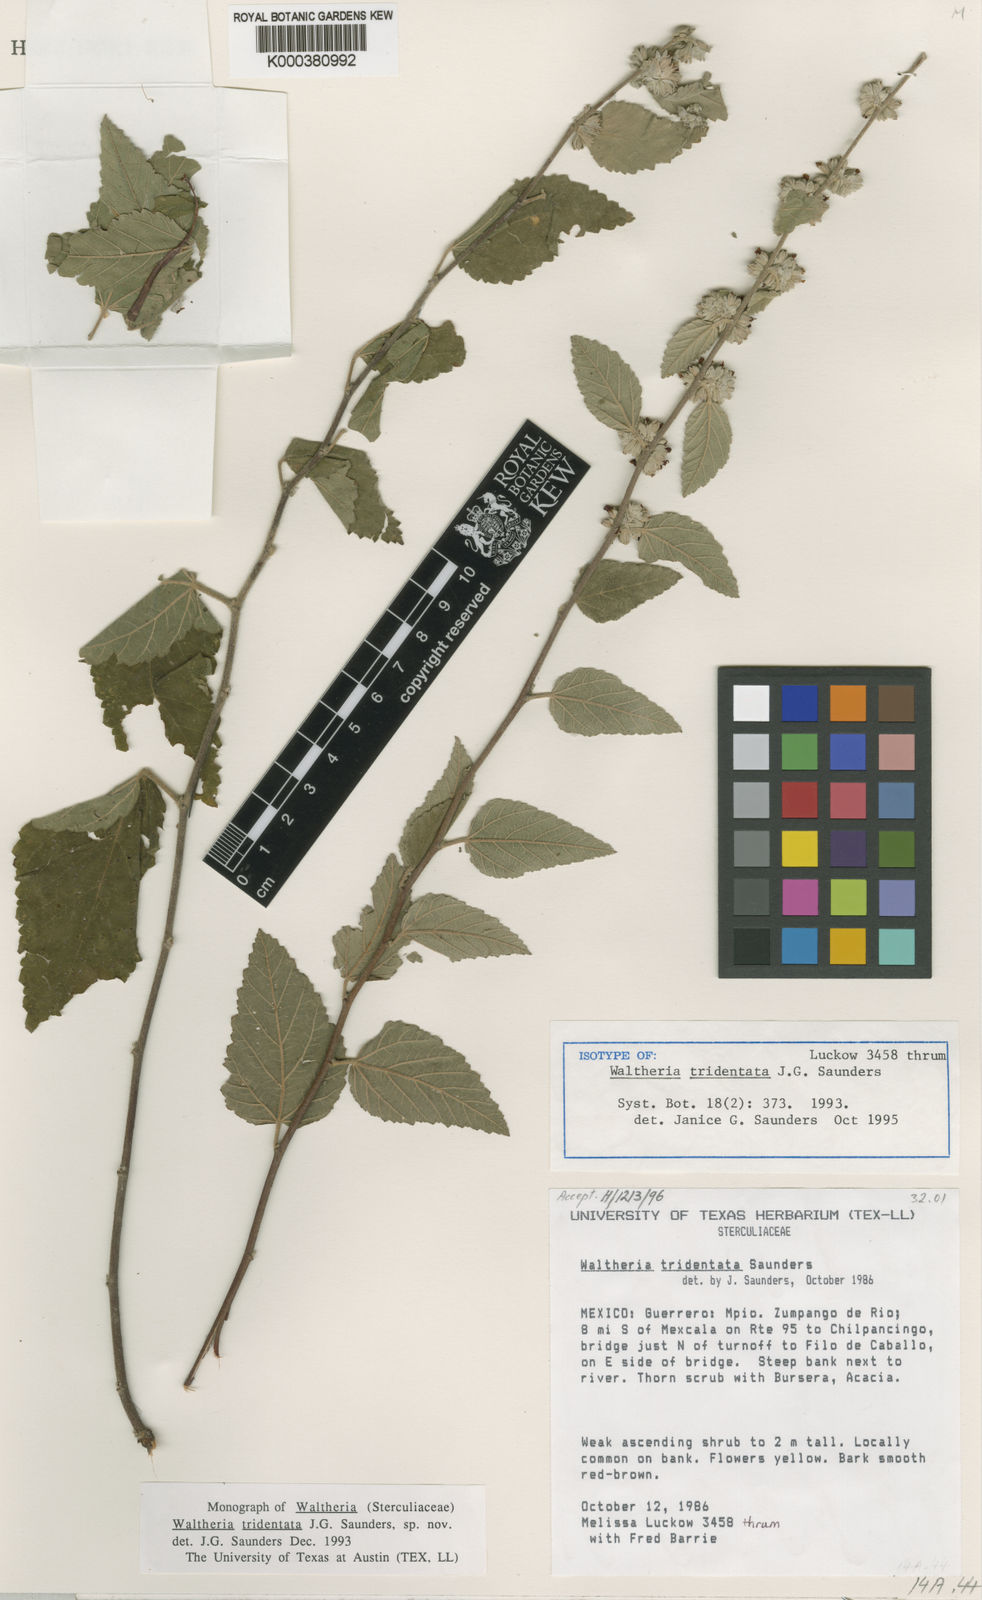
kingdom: Plantae
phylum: Tracheophyta
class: Magnoliopsida
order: Malvales
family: Malvaceae
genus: Waltheria
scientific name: Waltheria tridentata
